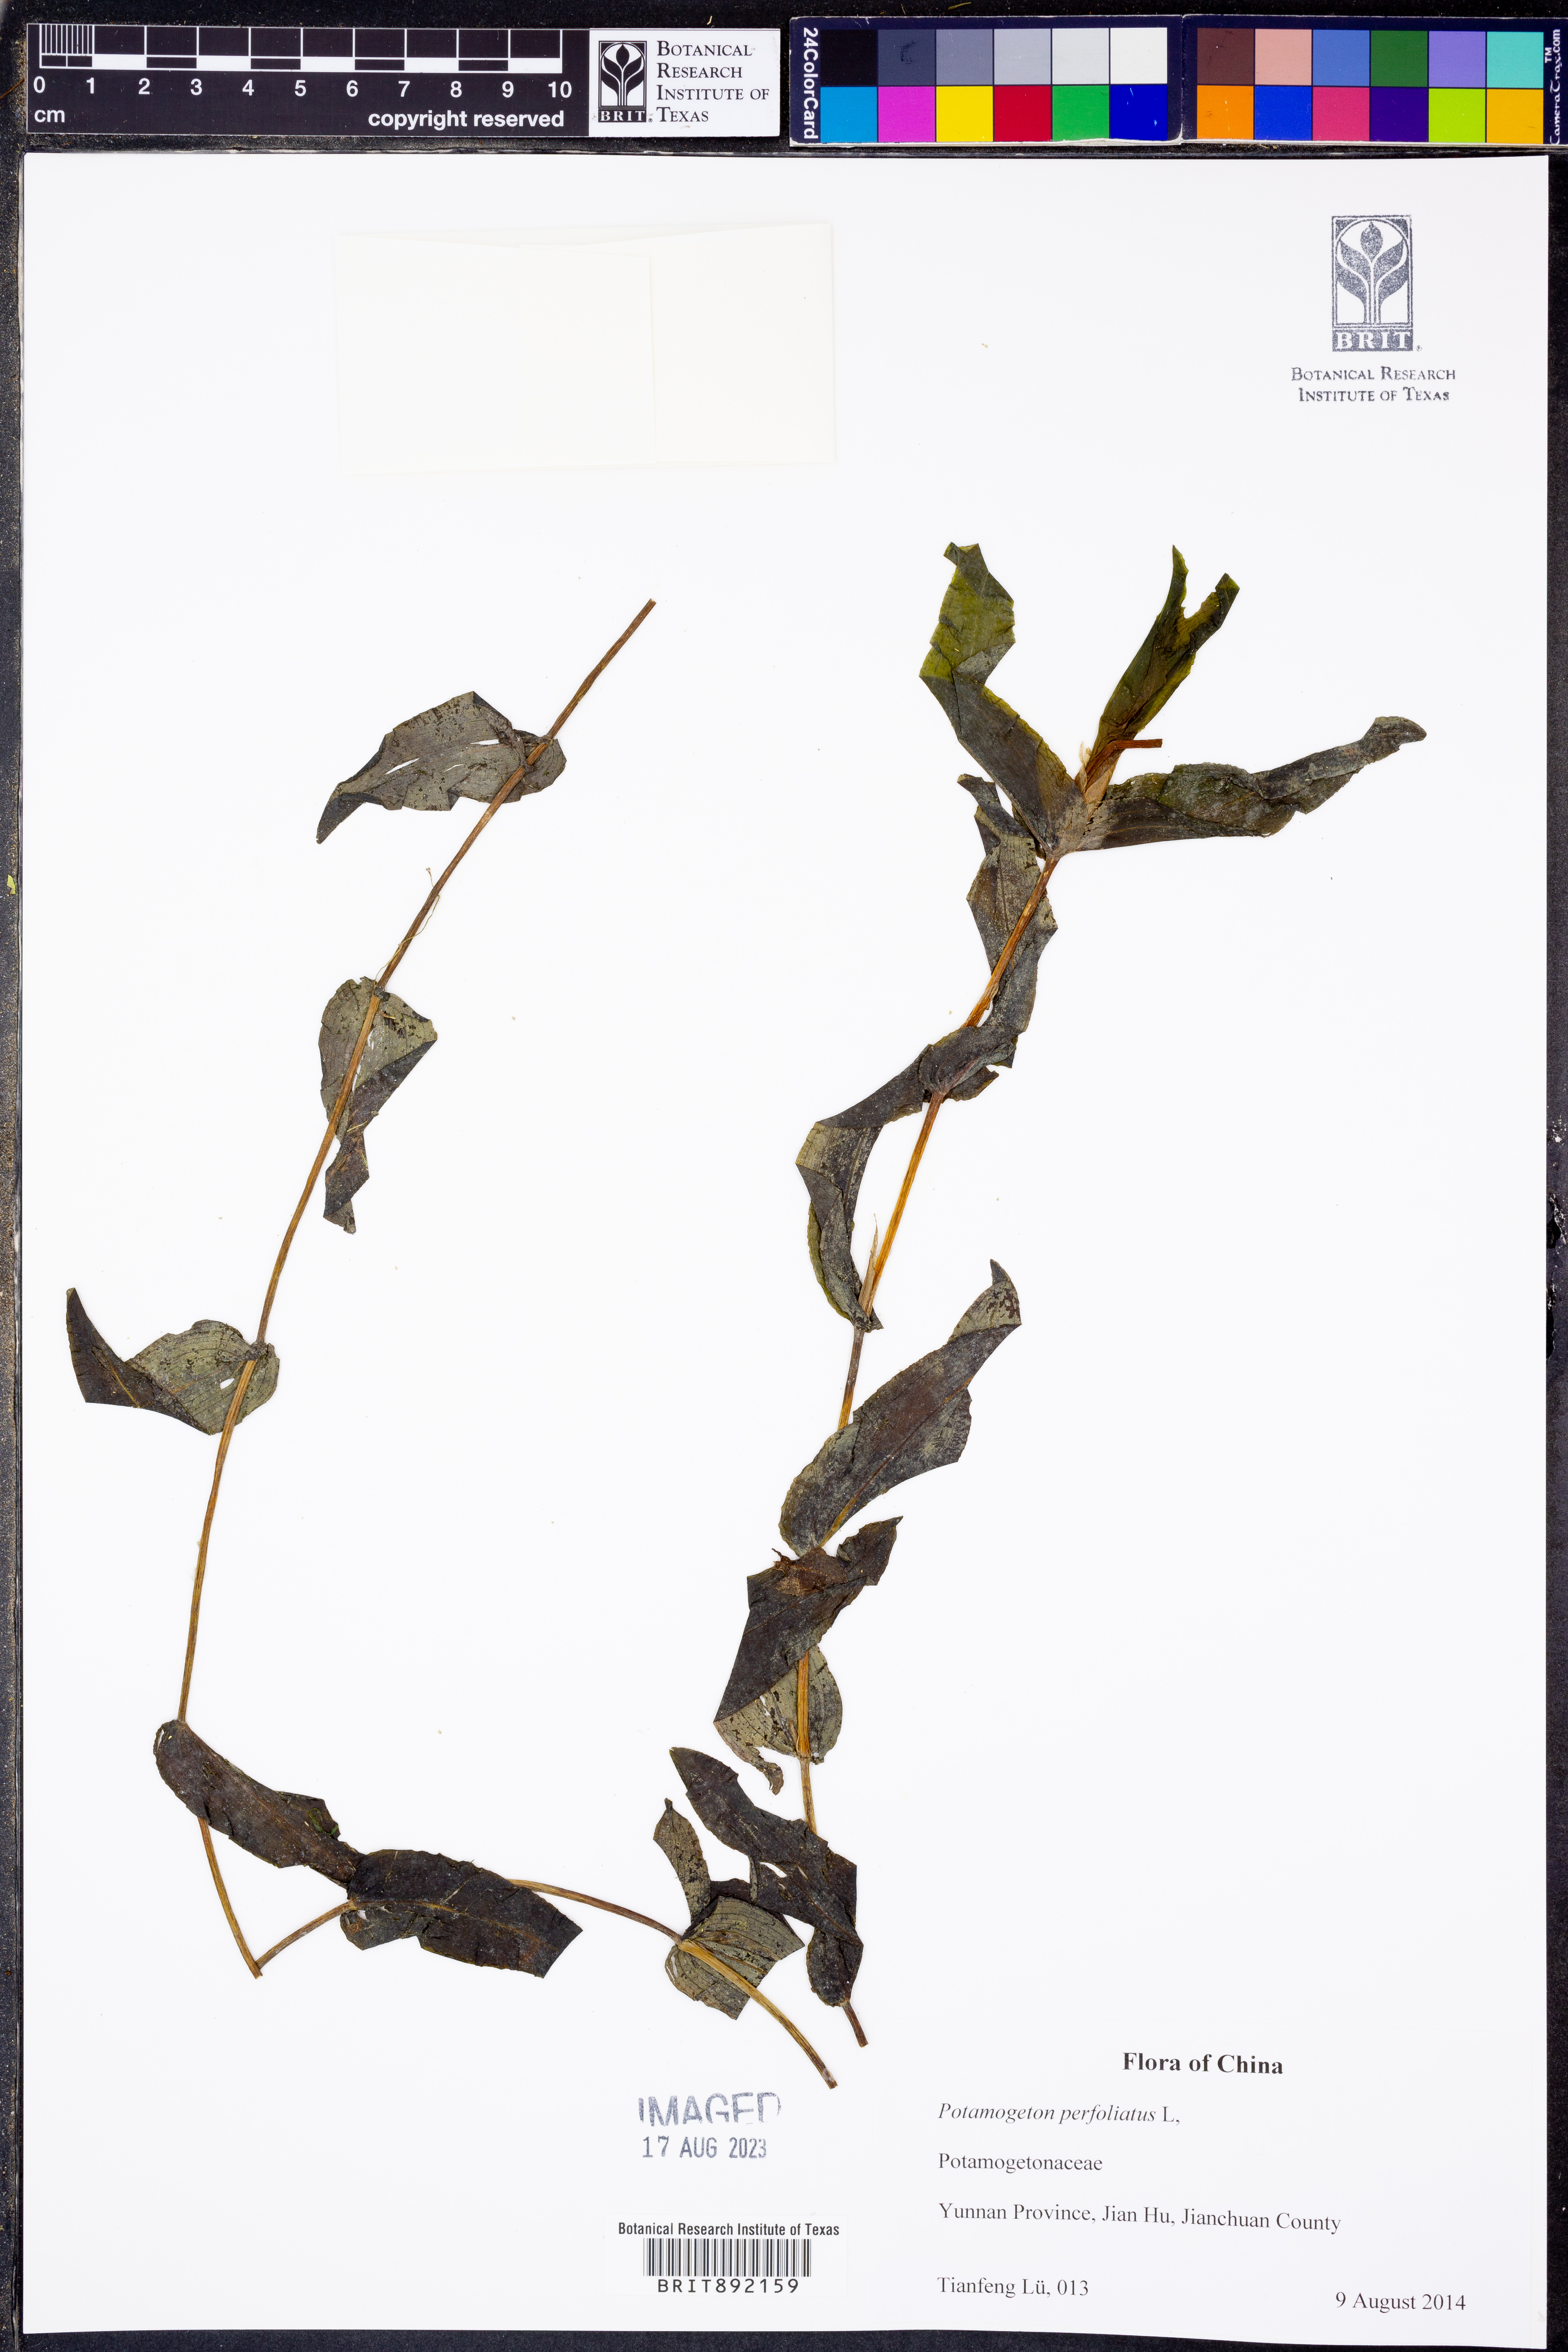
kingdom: Plantae
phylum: Tracheophyta
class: Liliopsida
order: Alismatales
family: Potamogetonaceae
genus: Potamogeton
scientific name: Potamogeton perfoliatus
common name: Perfoliate pondweed
